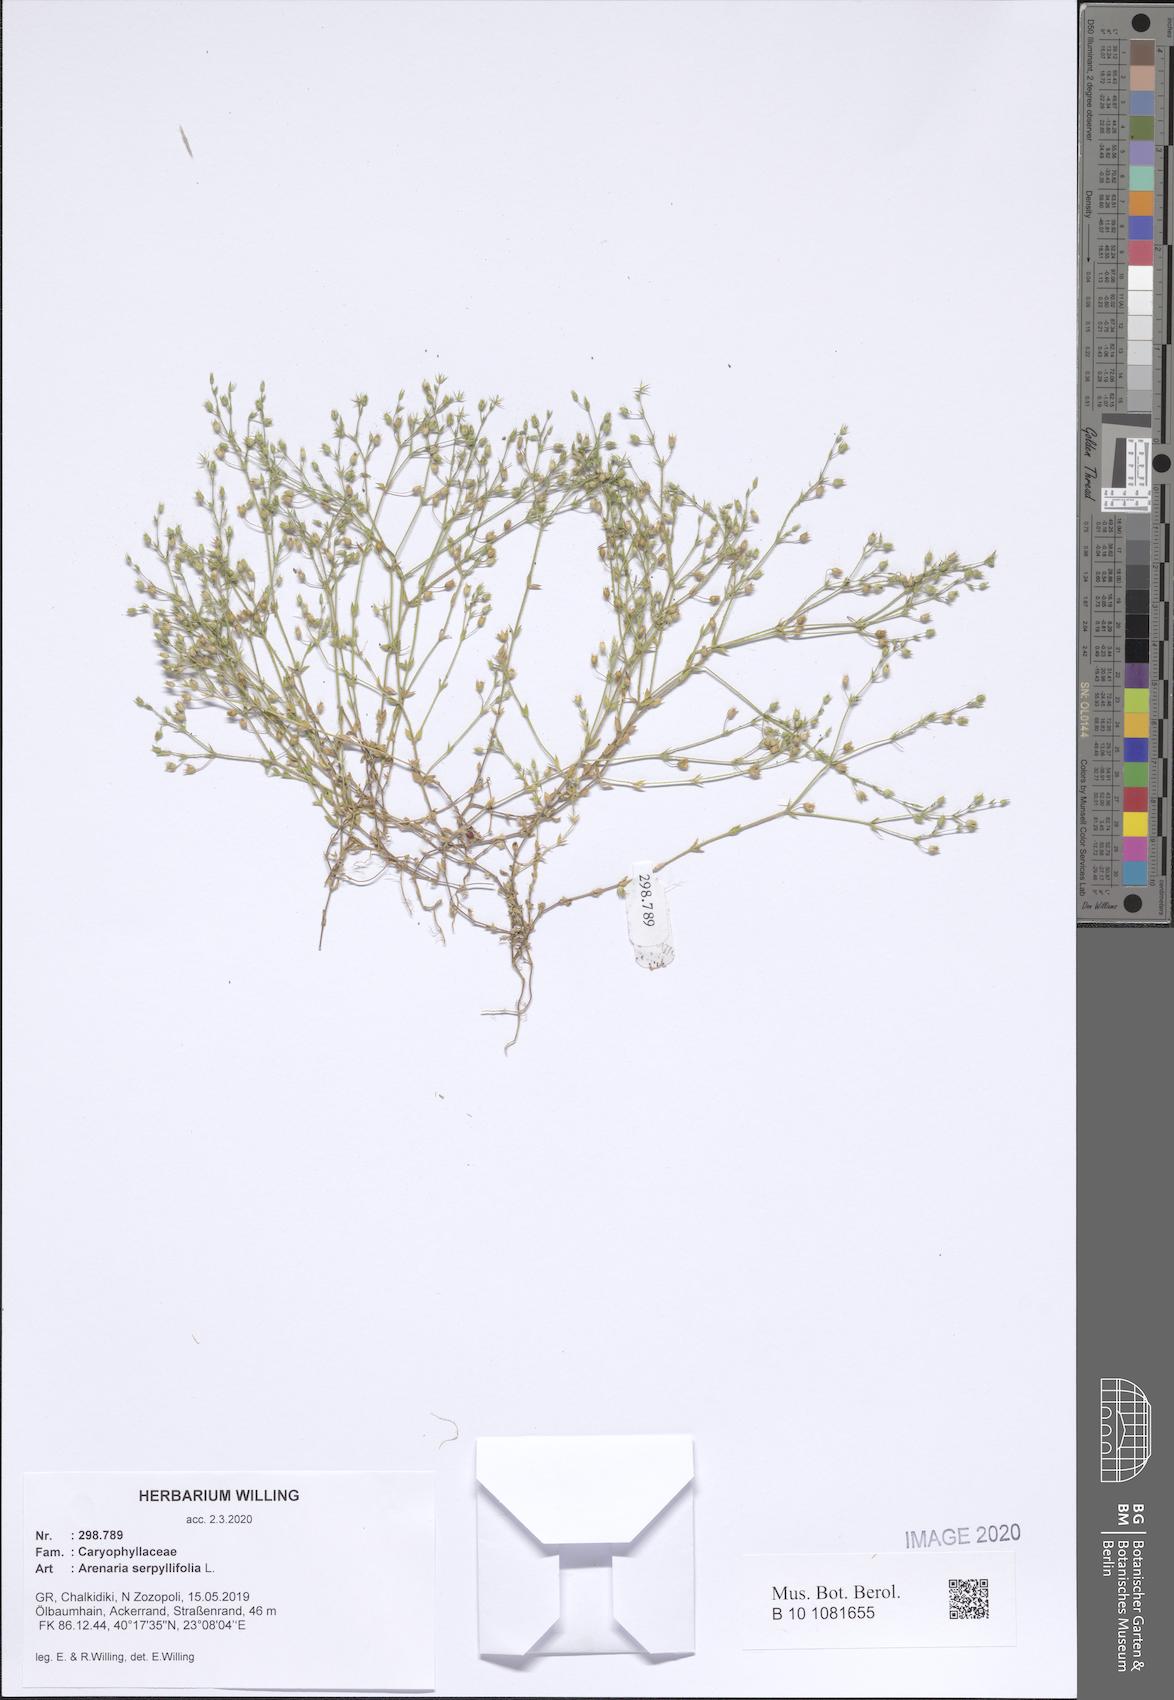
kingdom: Plantae
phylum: Tracheophyta
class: Magnoliopsida
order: Caryophyllales
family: Caryophyllaceae
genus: Arenaria
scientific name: Arenaria serpyllifolia
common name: Thyme-leaved sandwort
